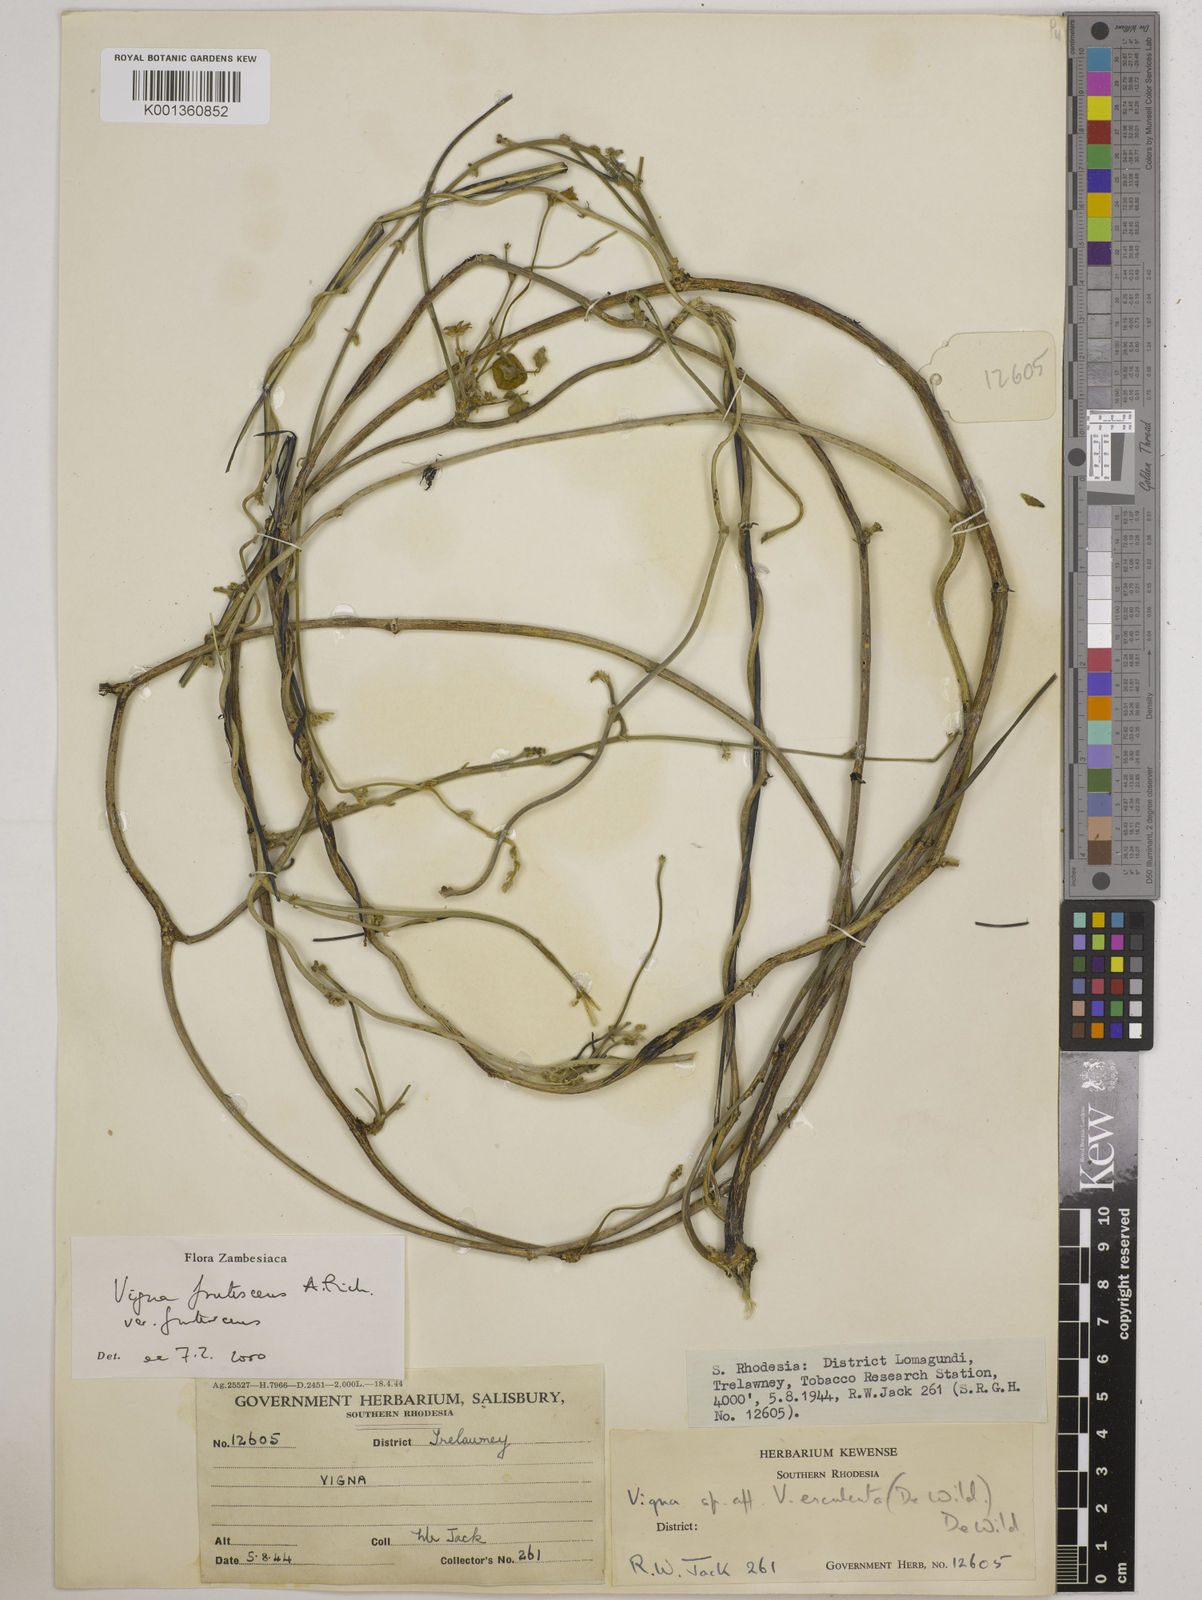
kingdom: Plantae
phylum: Tracheophyta
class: Magnoliopsida
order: Fabales
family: Fabaceae
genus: Vigna
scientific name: Vigna
